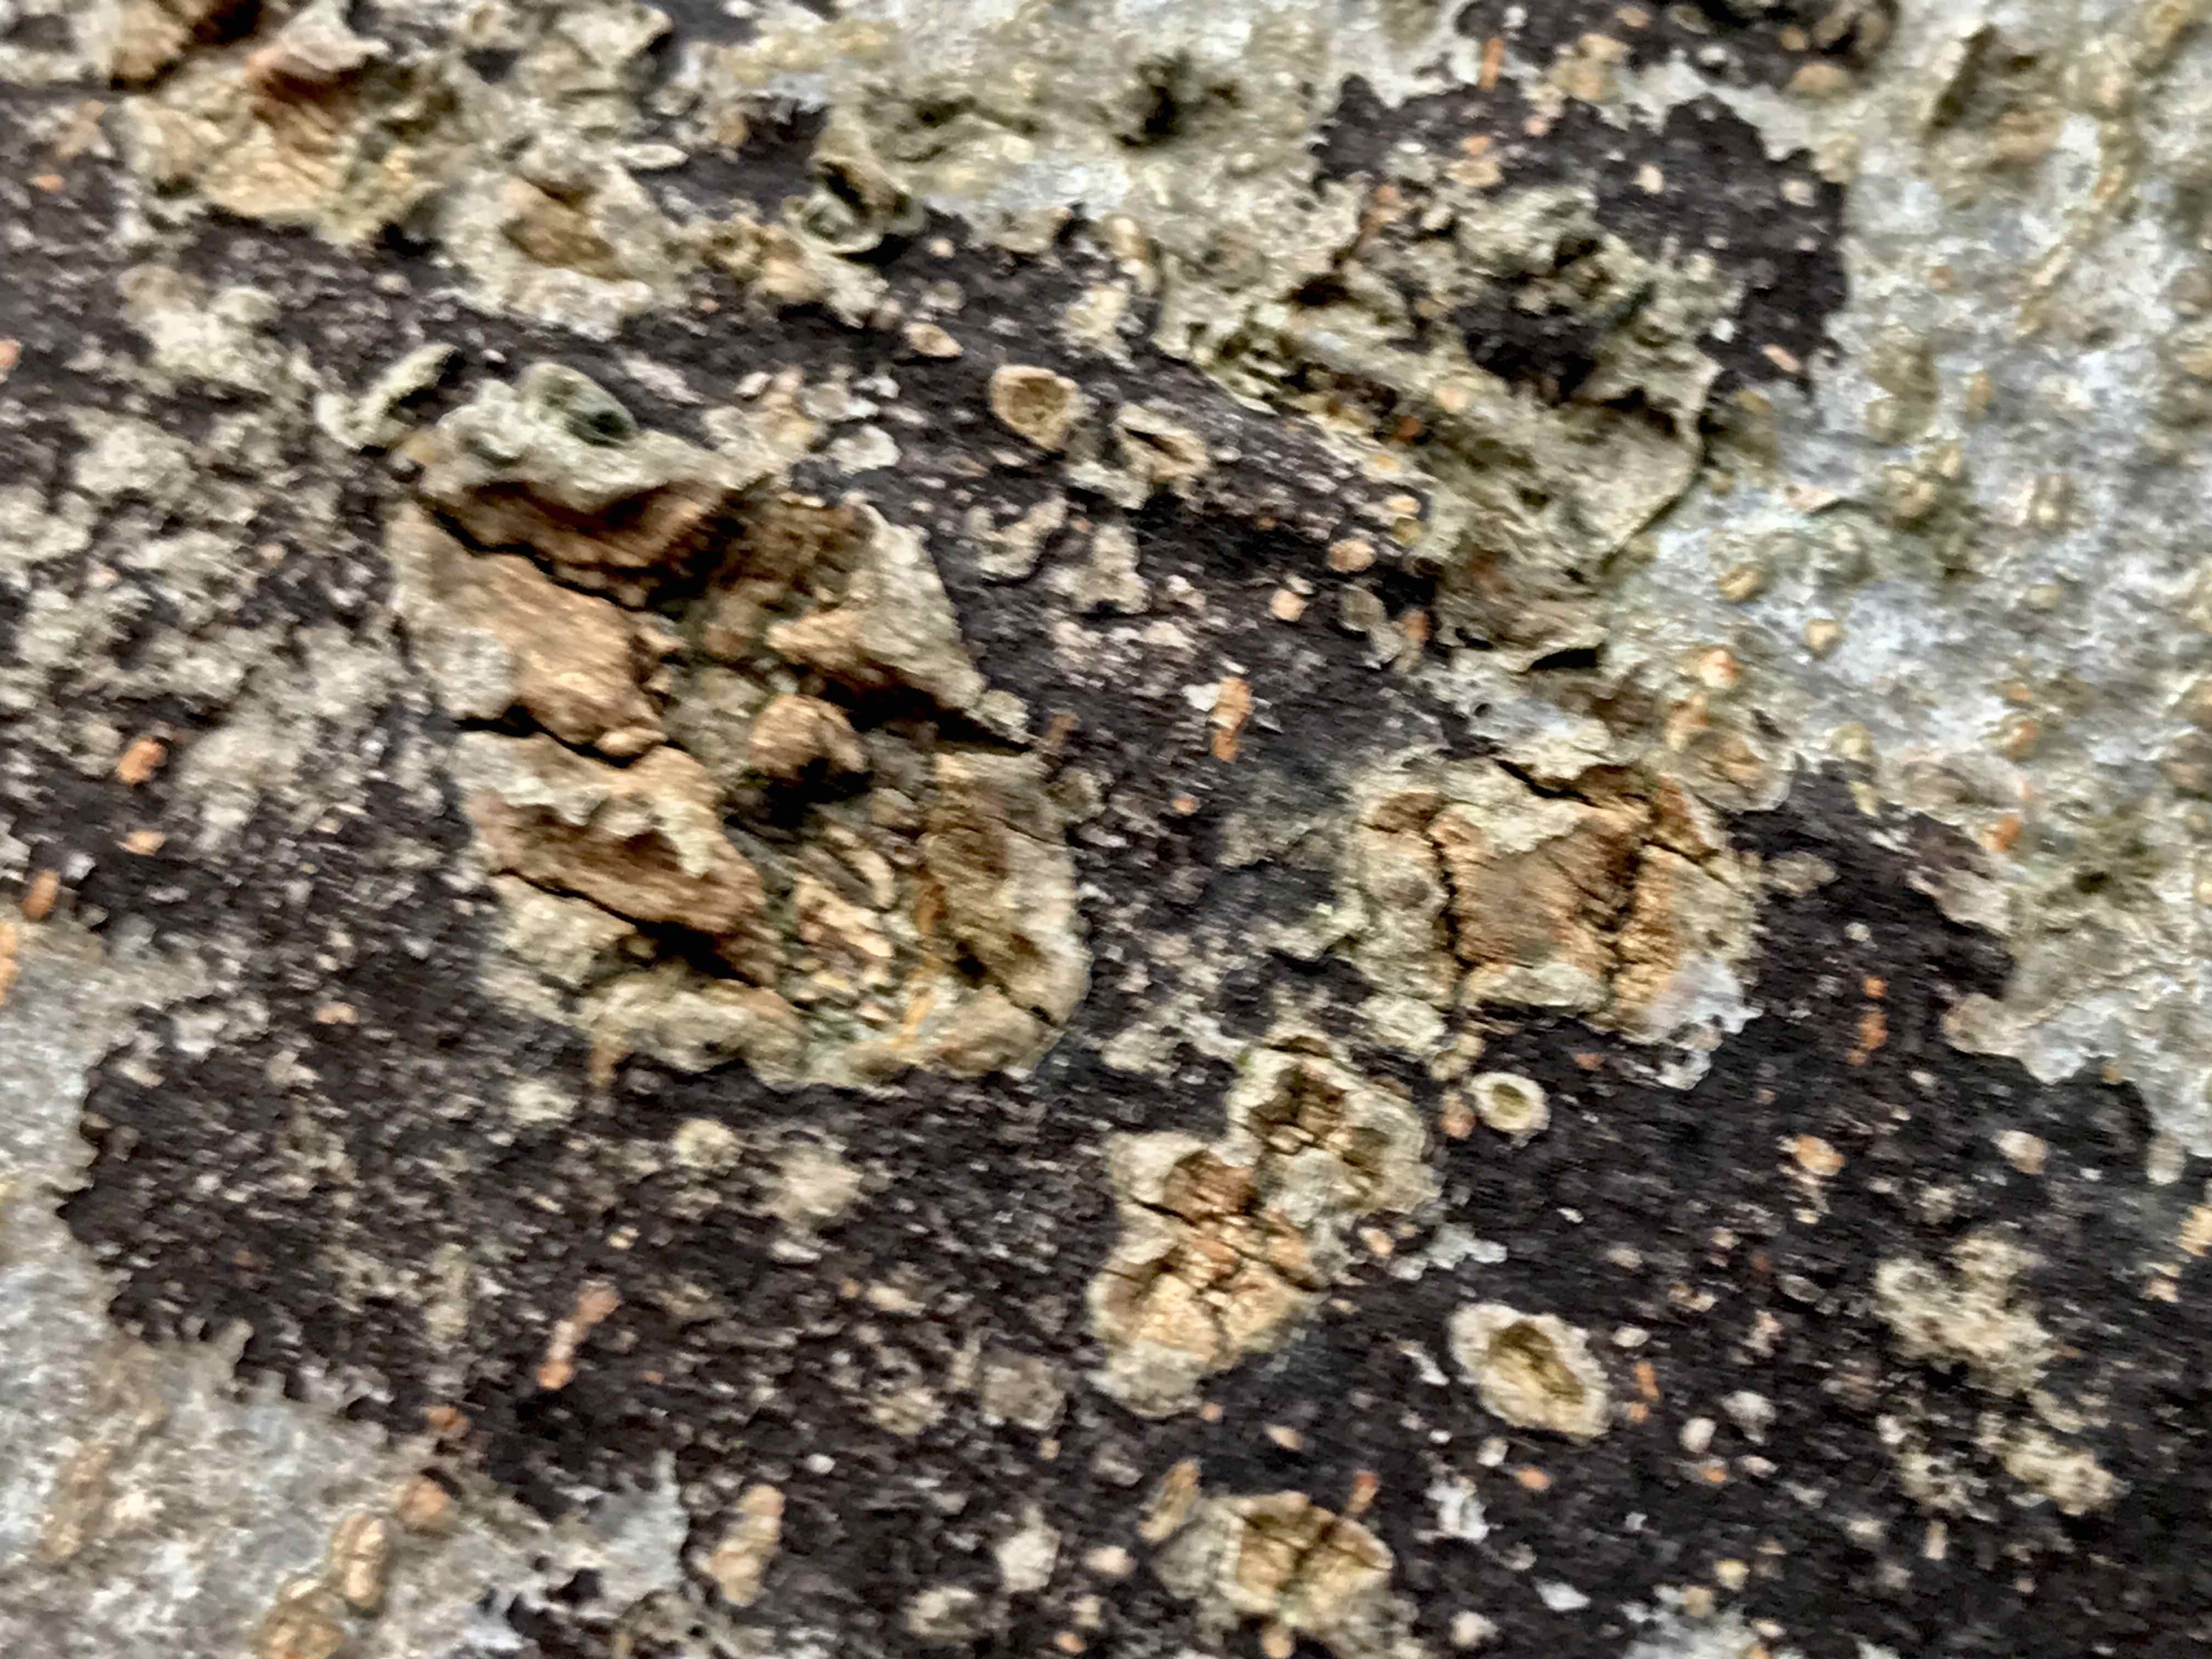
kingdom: Fungi
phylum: Ascomycota
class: Leotiomycetes
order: Rhytismatales
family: Ascodichaenaceae
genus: Ascodichaena
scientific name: Ascodichaena rugosa
